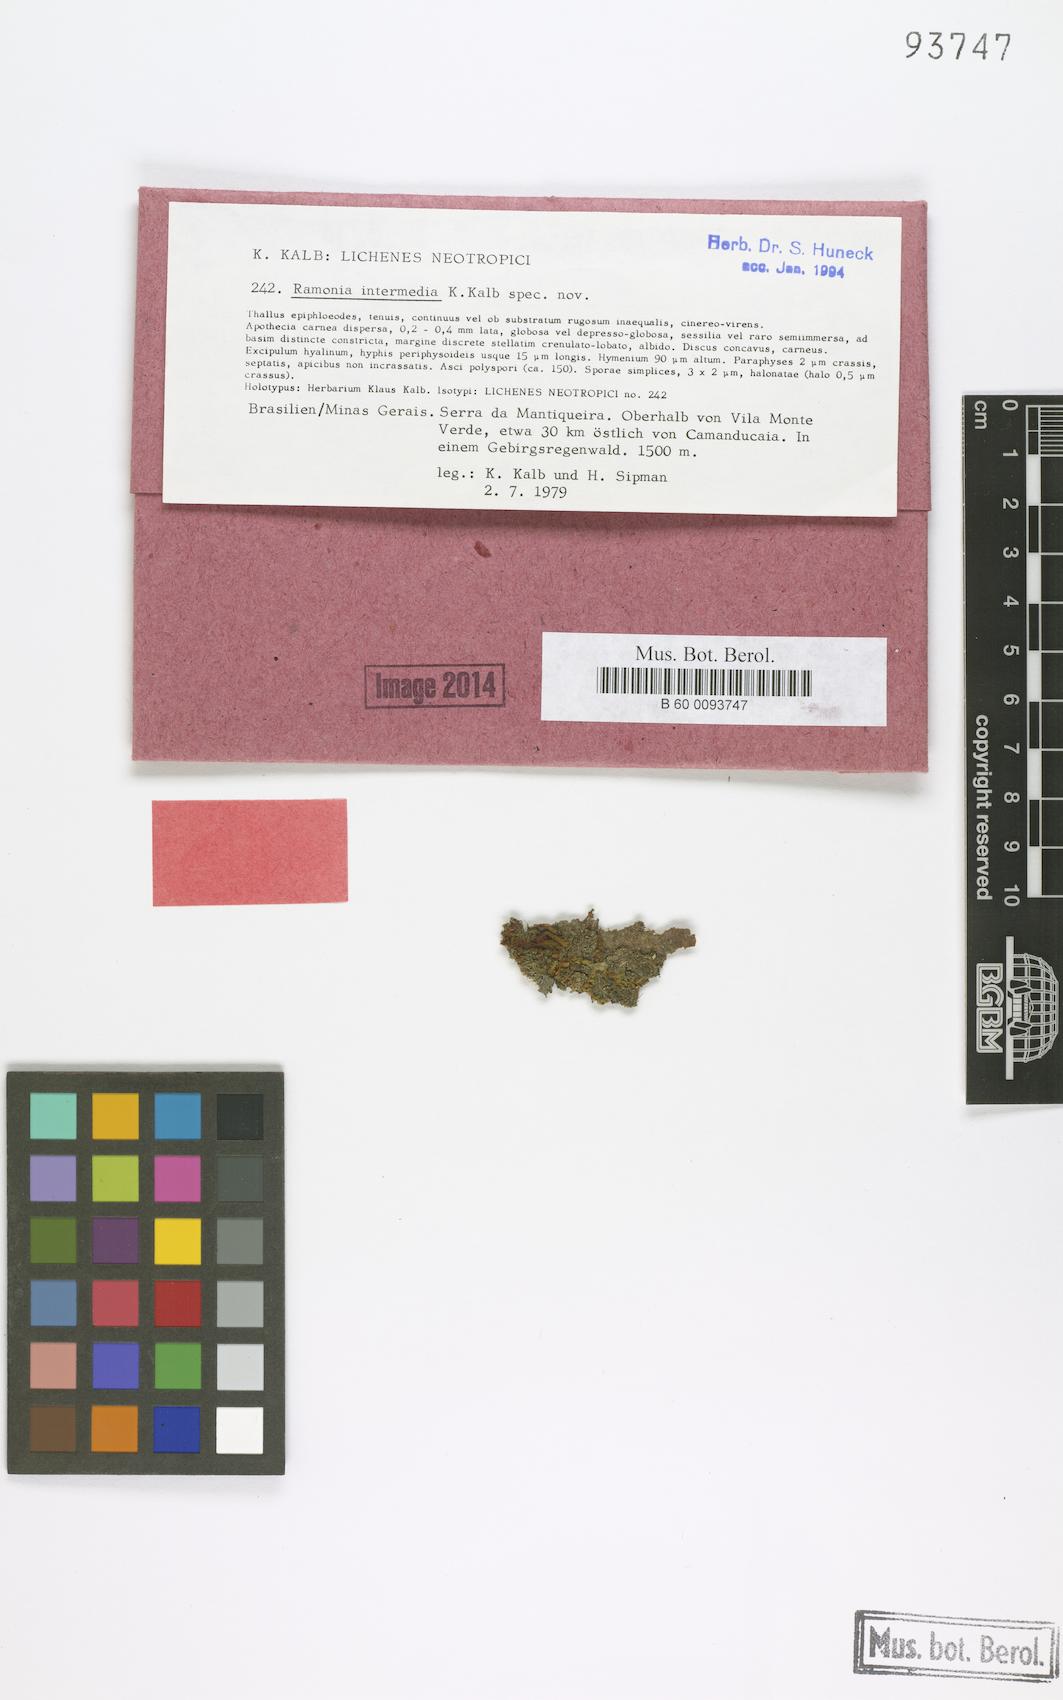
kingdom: Fungi
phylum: Ascomycota
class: Lecanoromycetes
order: Gyalectales
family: Gyalectaceae
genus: Ramonia
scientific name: Ramonia intermedia
